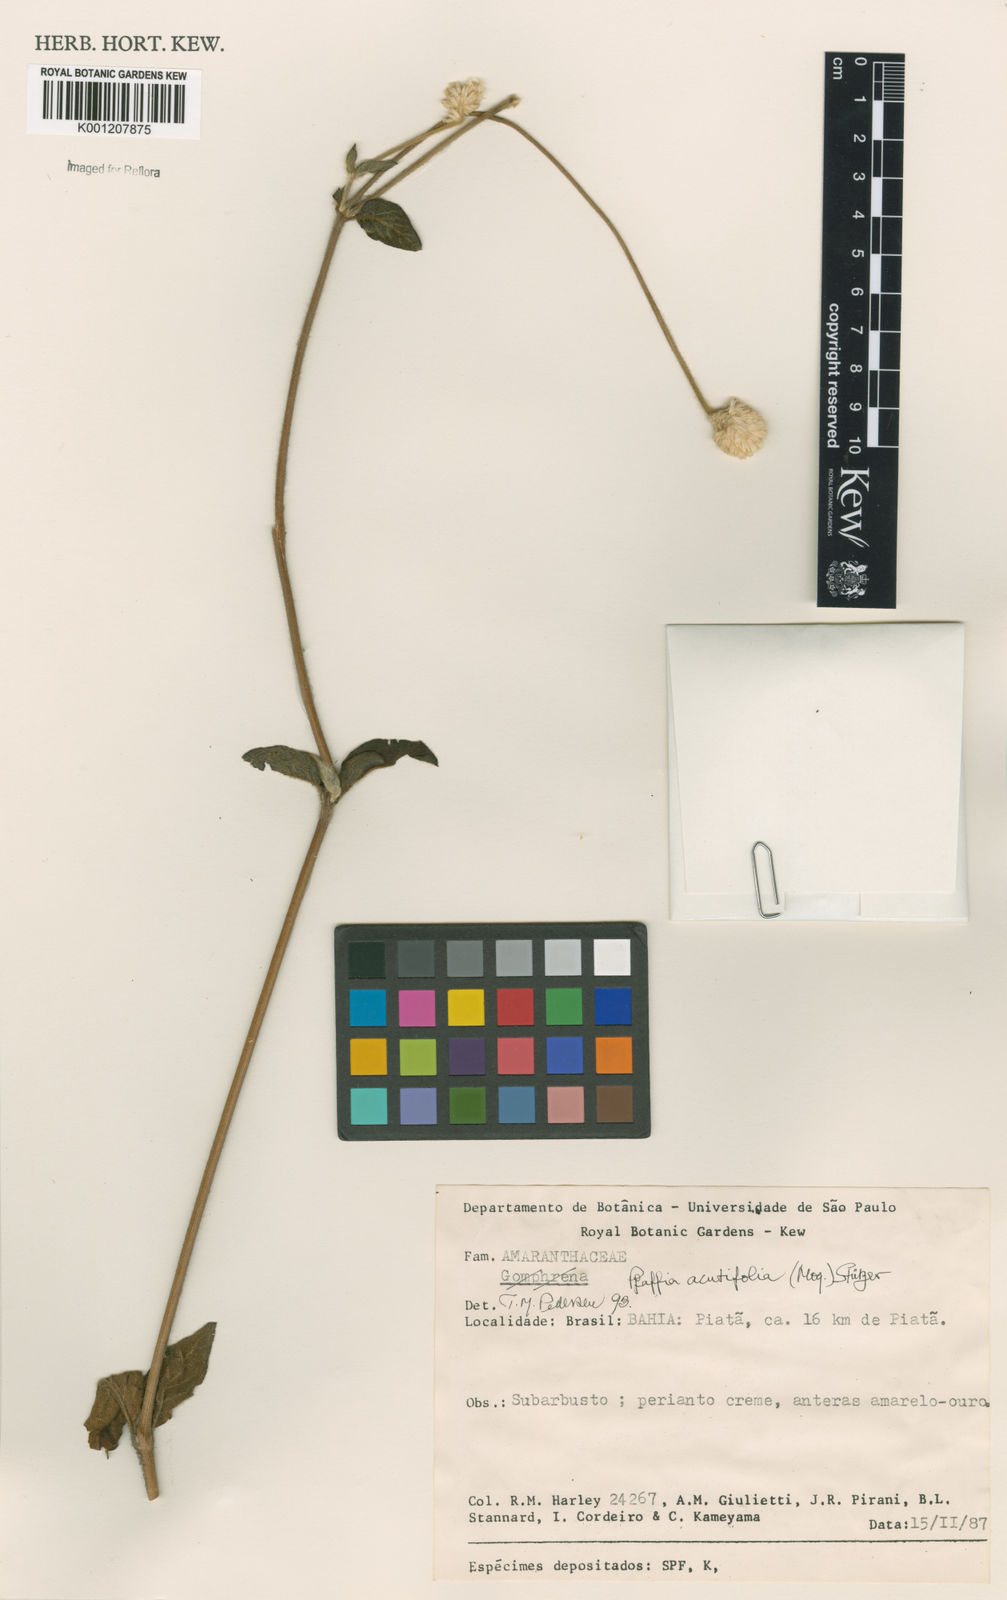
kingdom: Plantae
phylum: Tracheophyta
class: Magnoliopsida
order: Caryophyllales
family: Amaranthaceae
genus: Pfaffia
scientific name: Pfaffia
